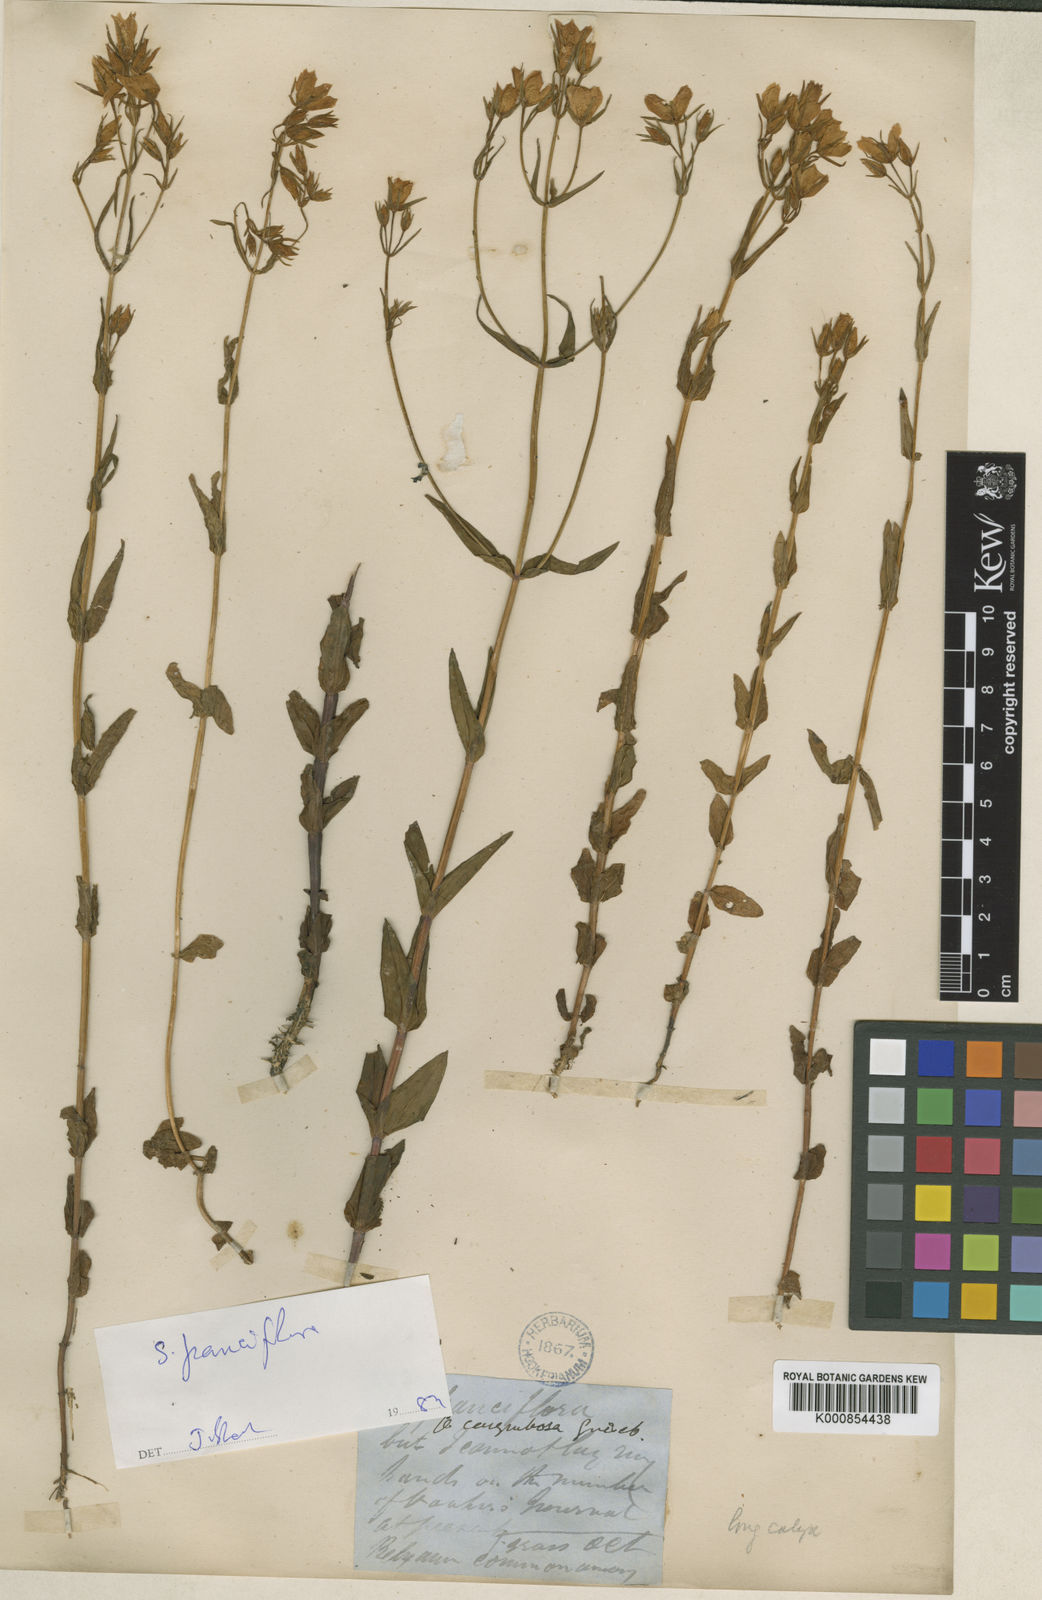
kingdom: Plantae
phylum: Tracheophyta
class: Magnoliopsida
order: Gentianales
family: Gentianaceae
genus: Swertia
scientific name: Swertia
